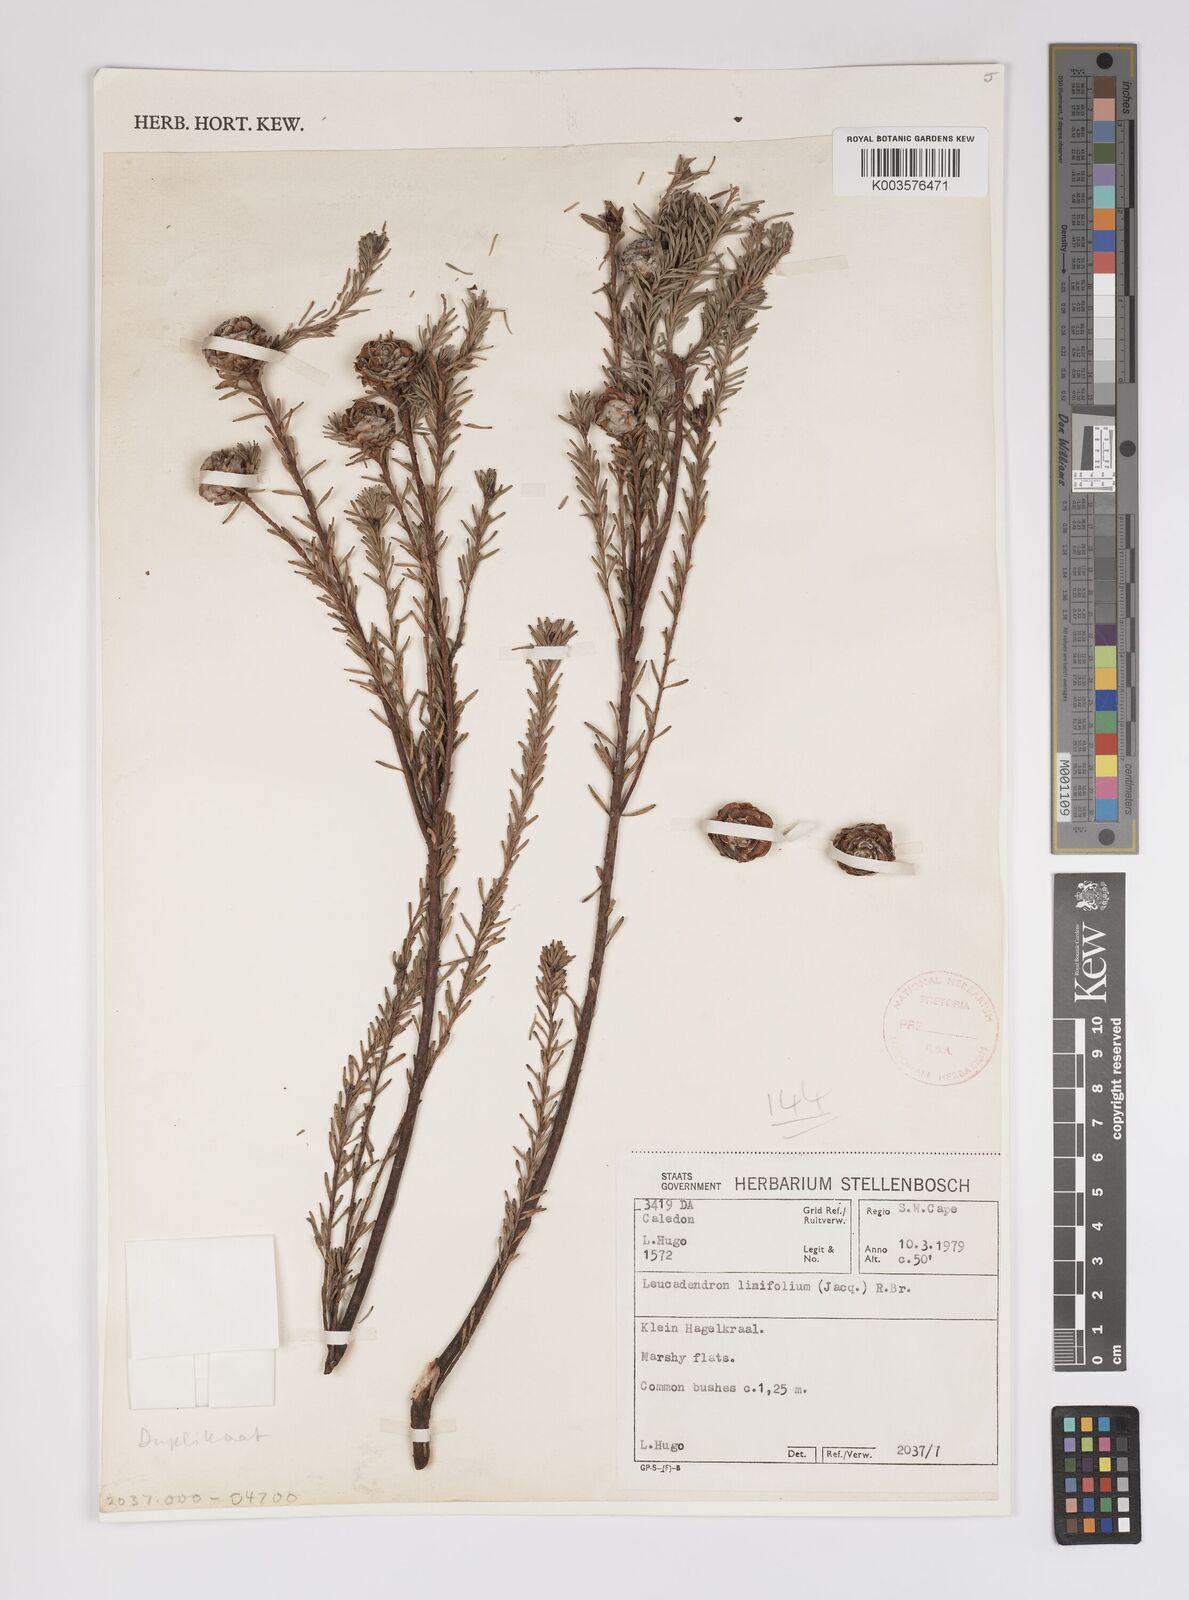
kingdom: Plantae
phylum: Tracheophyta
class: Magnoliopsida
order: Proteales
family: Proteaceae
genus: Leucadendron
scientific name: Leucadendron linifolium
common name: Line-leaf conebush
